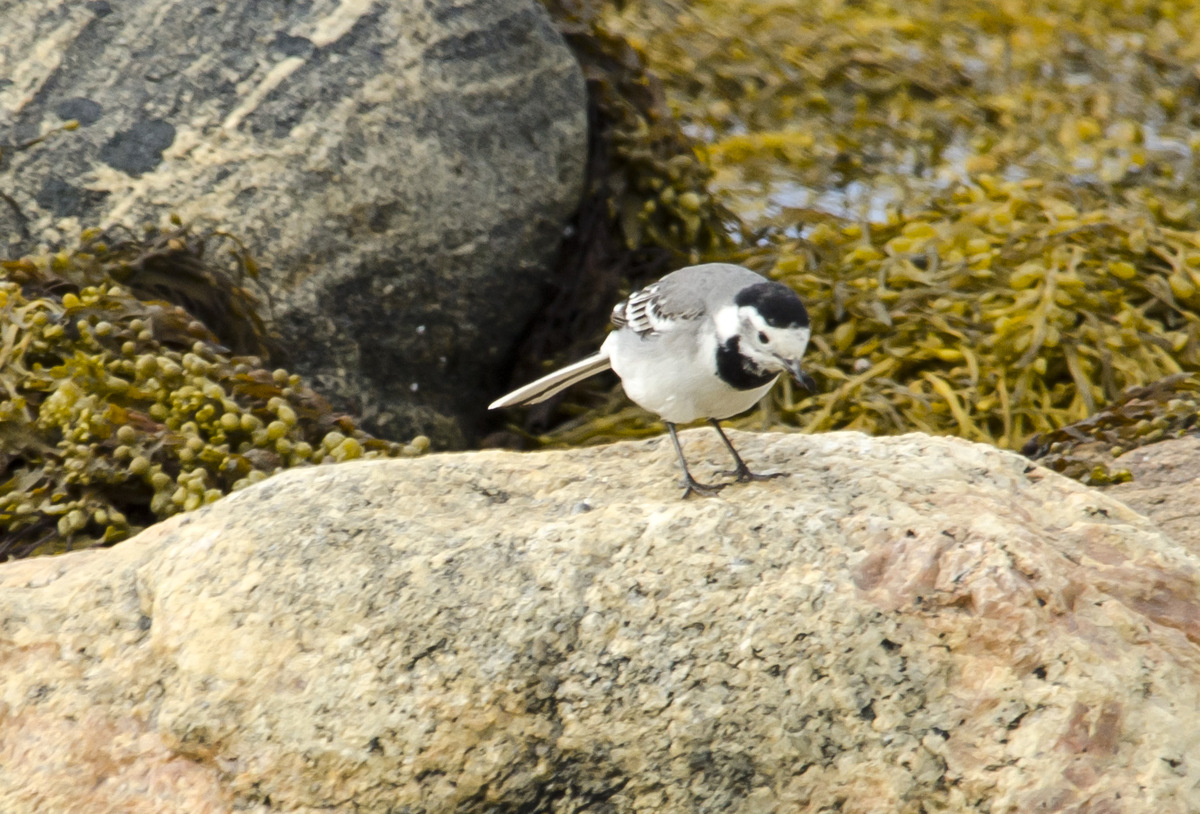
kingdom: Animalia
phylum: Chordata
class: Aves
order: Passeriformes
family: Motacillidae
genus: Motacilla
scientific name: Motacilla alba
